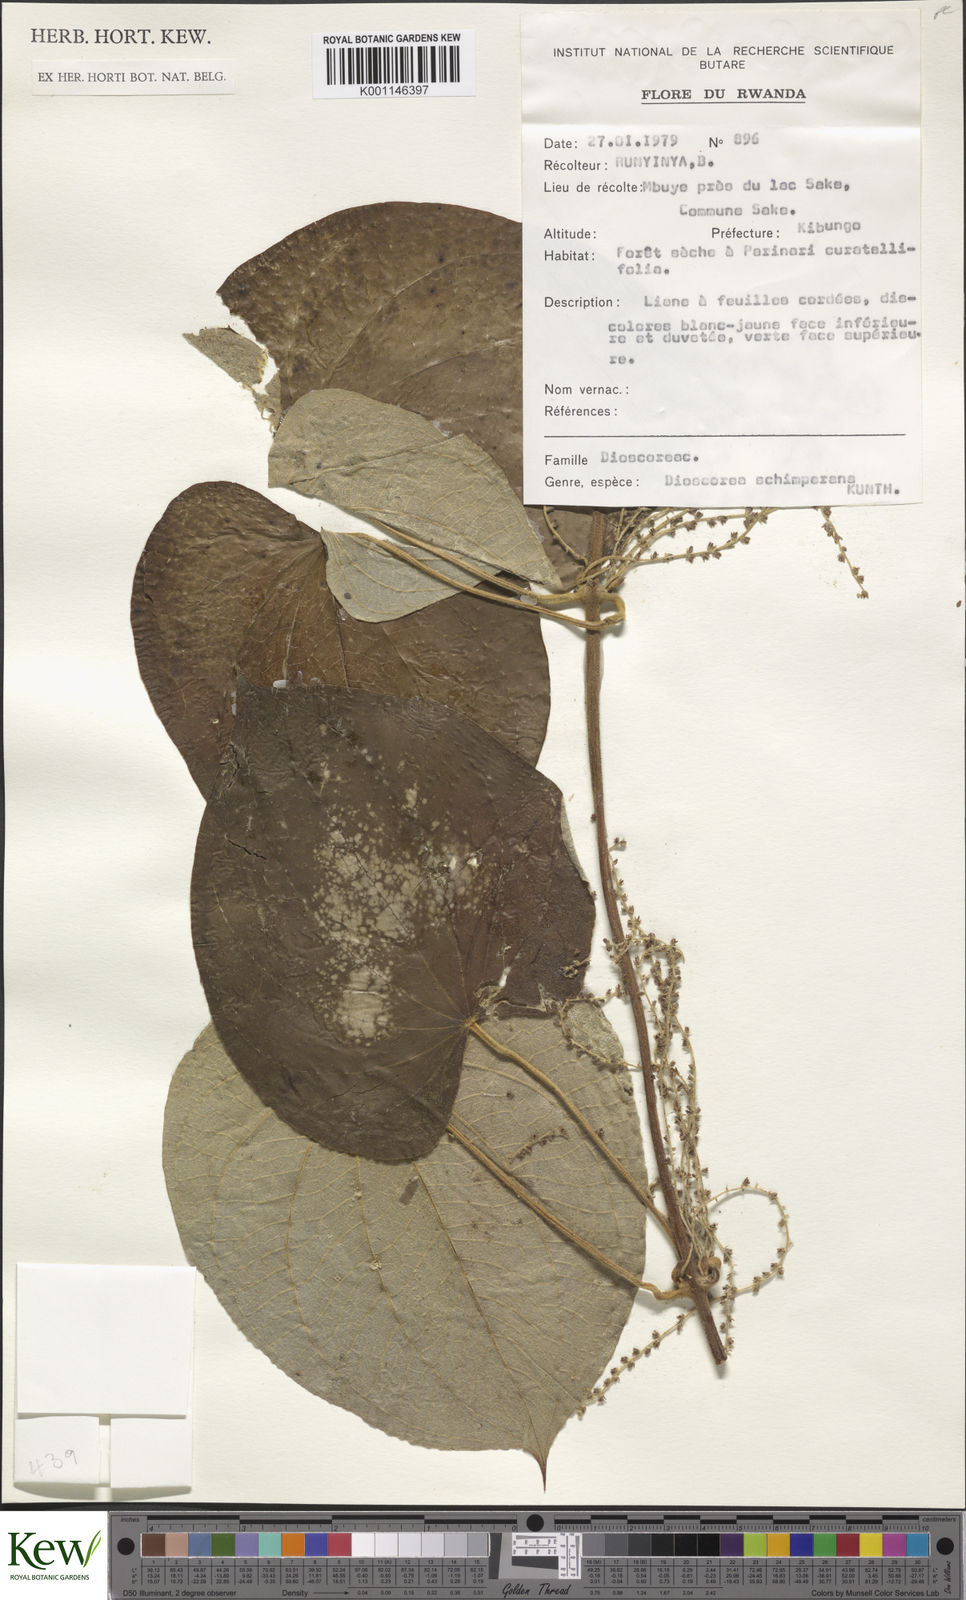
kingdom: Plantae
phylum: Tracheophyta
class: Liliopsida
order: Dioscoreales
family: Dioscoreaceae
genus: Dioscorea
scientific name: Dioscorea schimperiana
